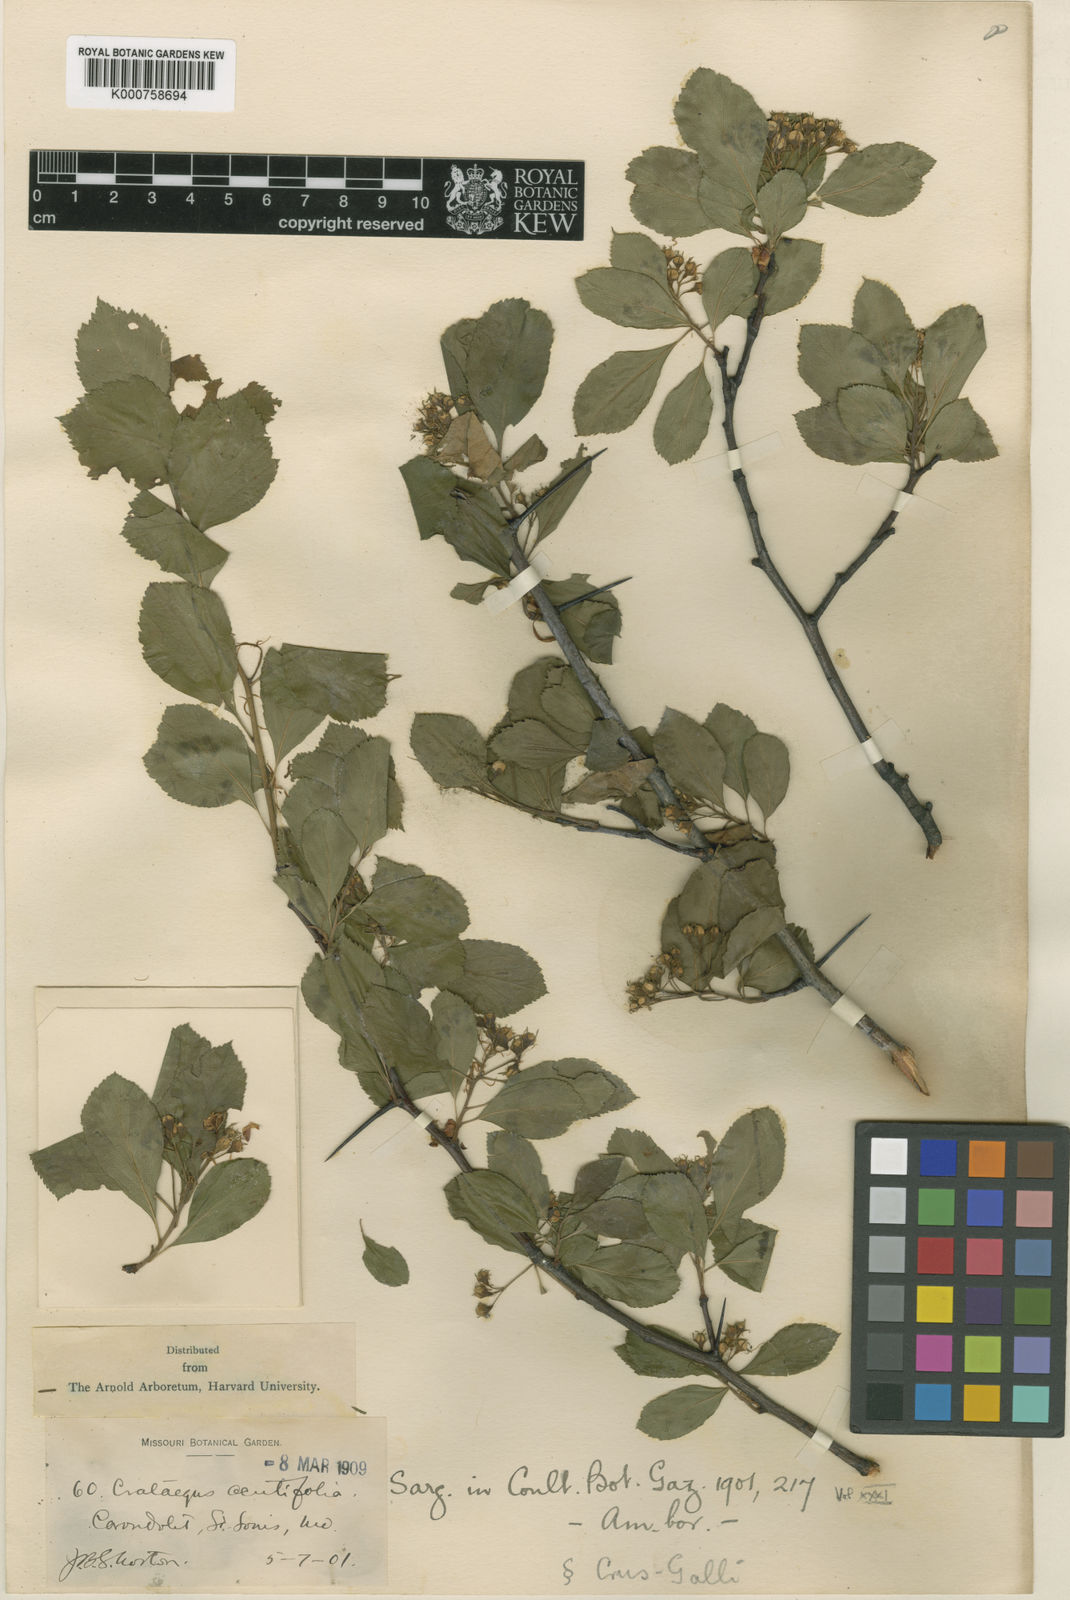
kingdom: Plantae
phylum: Tracheophyta
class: Magnoliopsida
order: Rosales
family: Rosaceae
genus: Crataegus
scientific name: Crataegus chrysocarpa
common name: Fire-berry hawthorn
